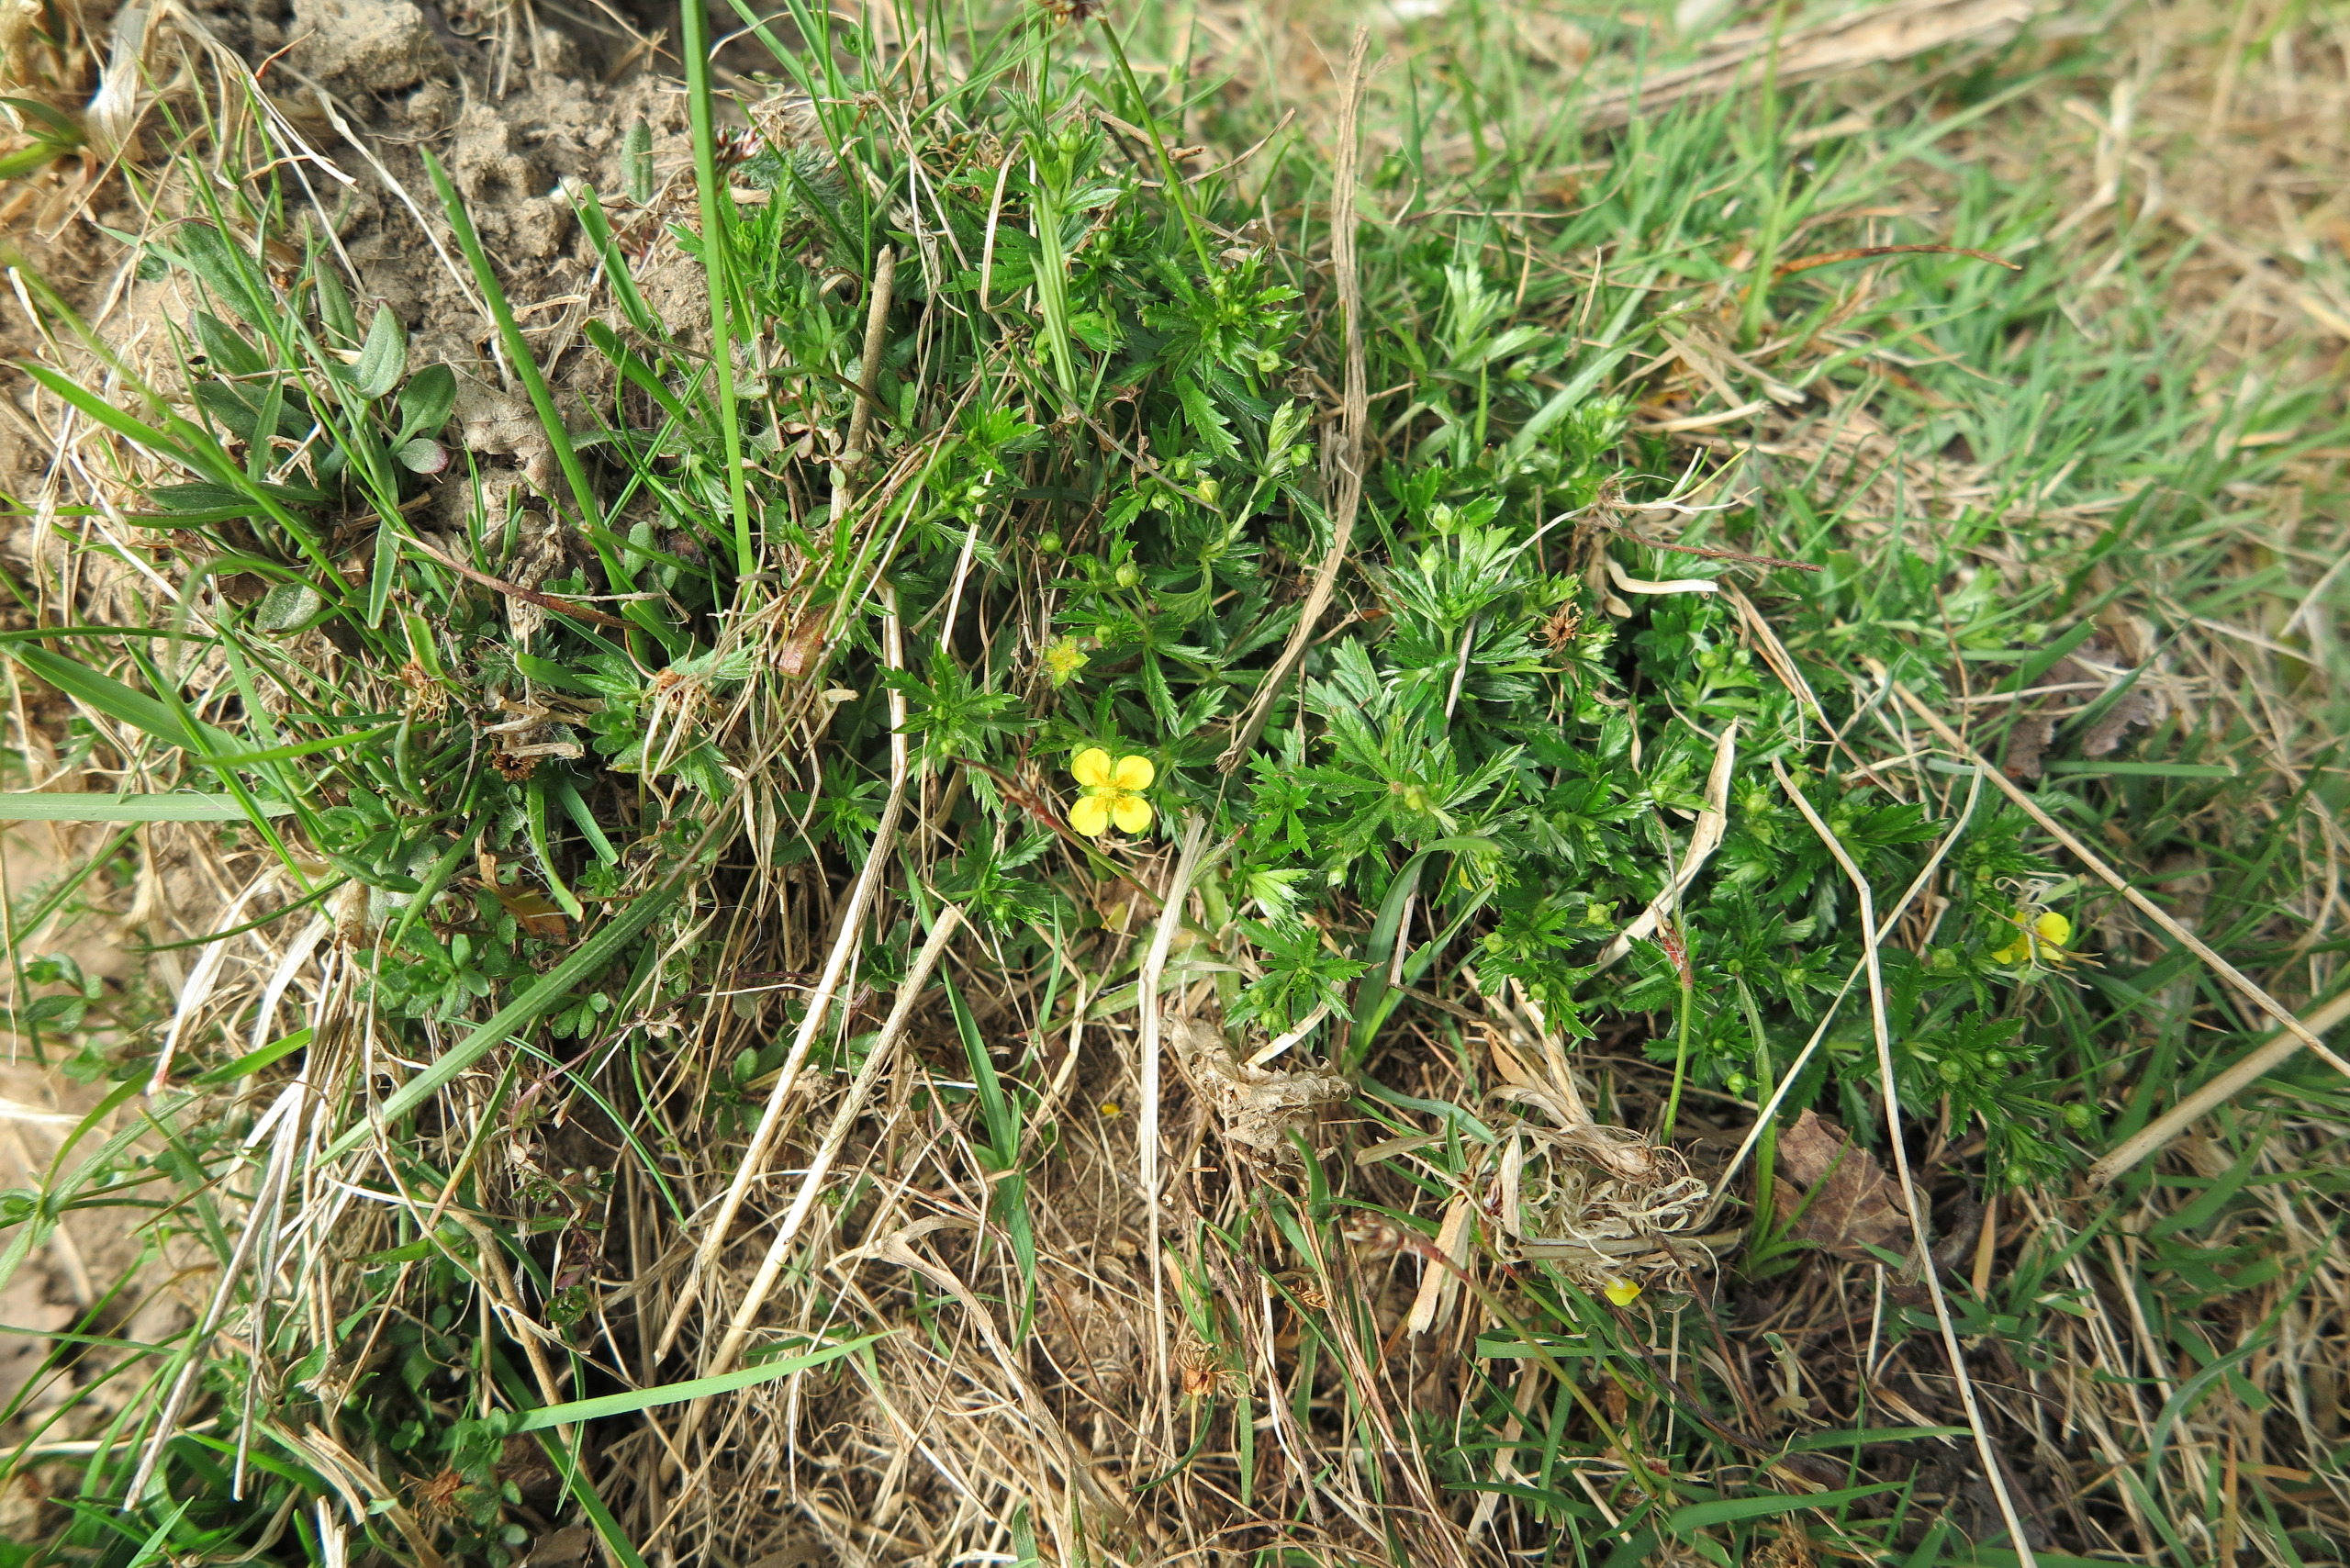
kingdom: Plantae
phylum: Tracheophyta
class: Magnoliopsida
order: Rosales
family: Rosaceae
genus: Potentilla
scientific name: Potentilla erecta
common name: Tormentil
